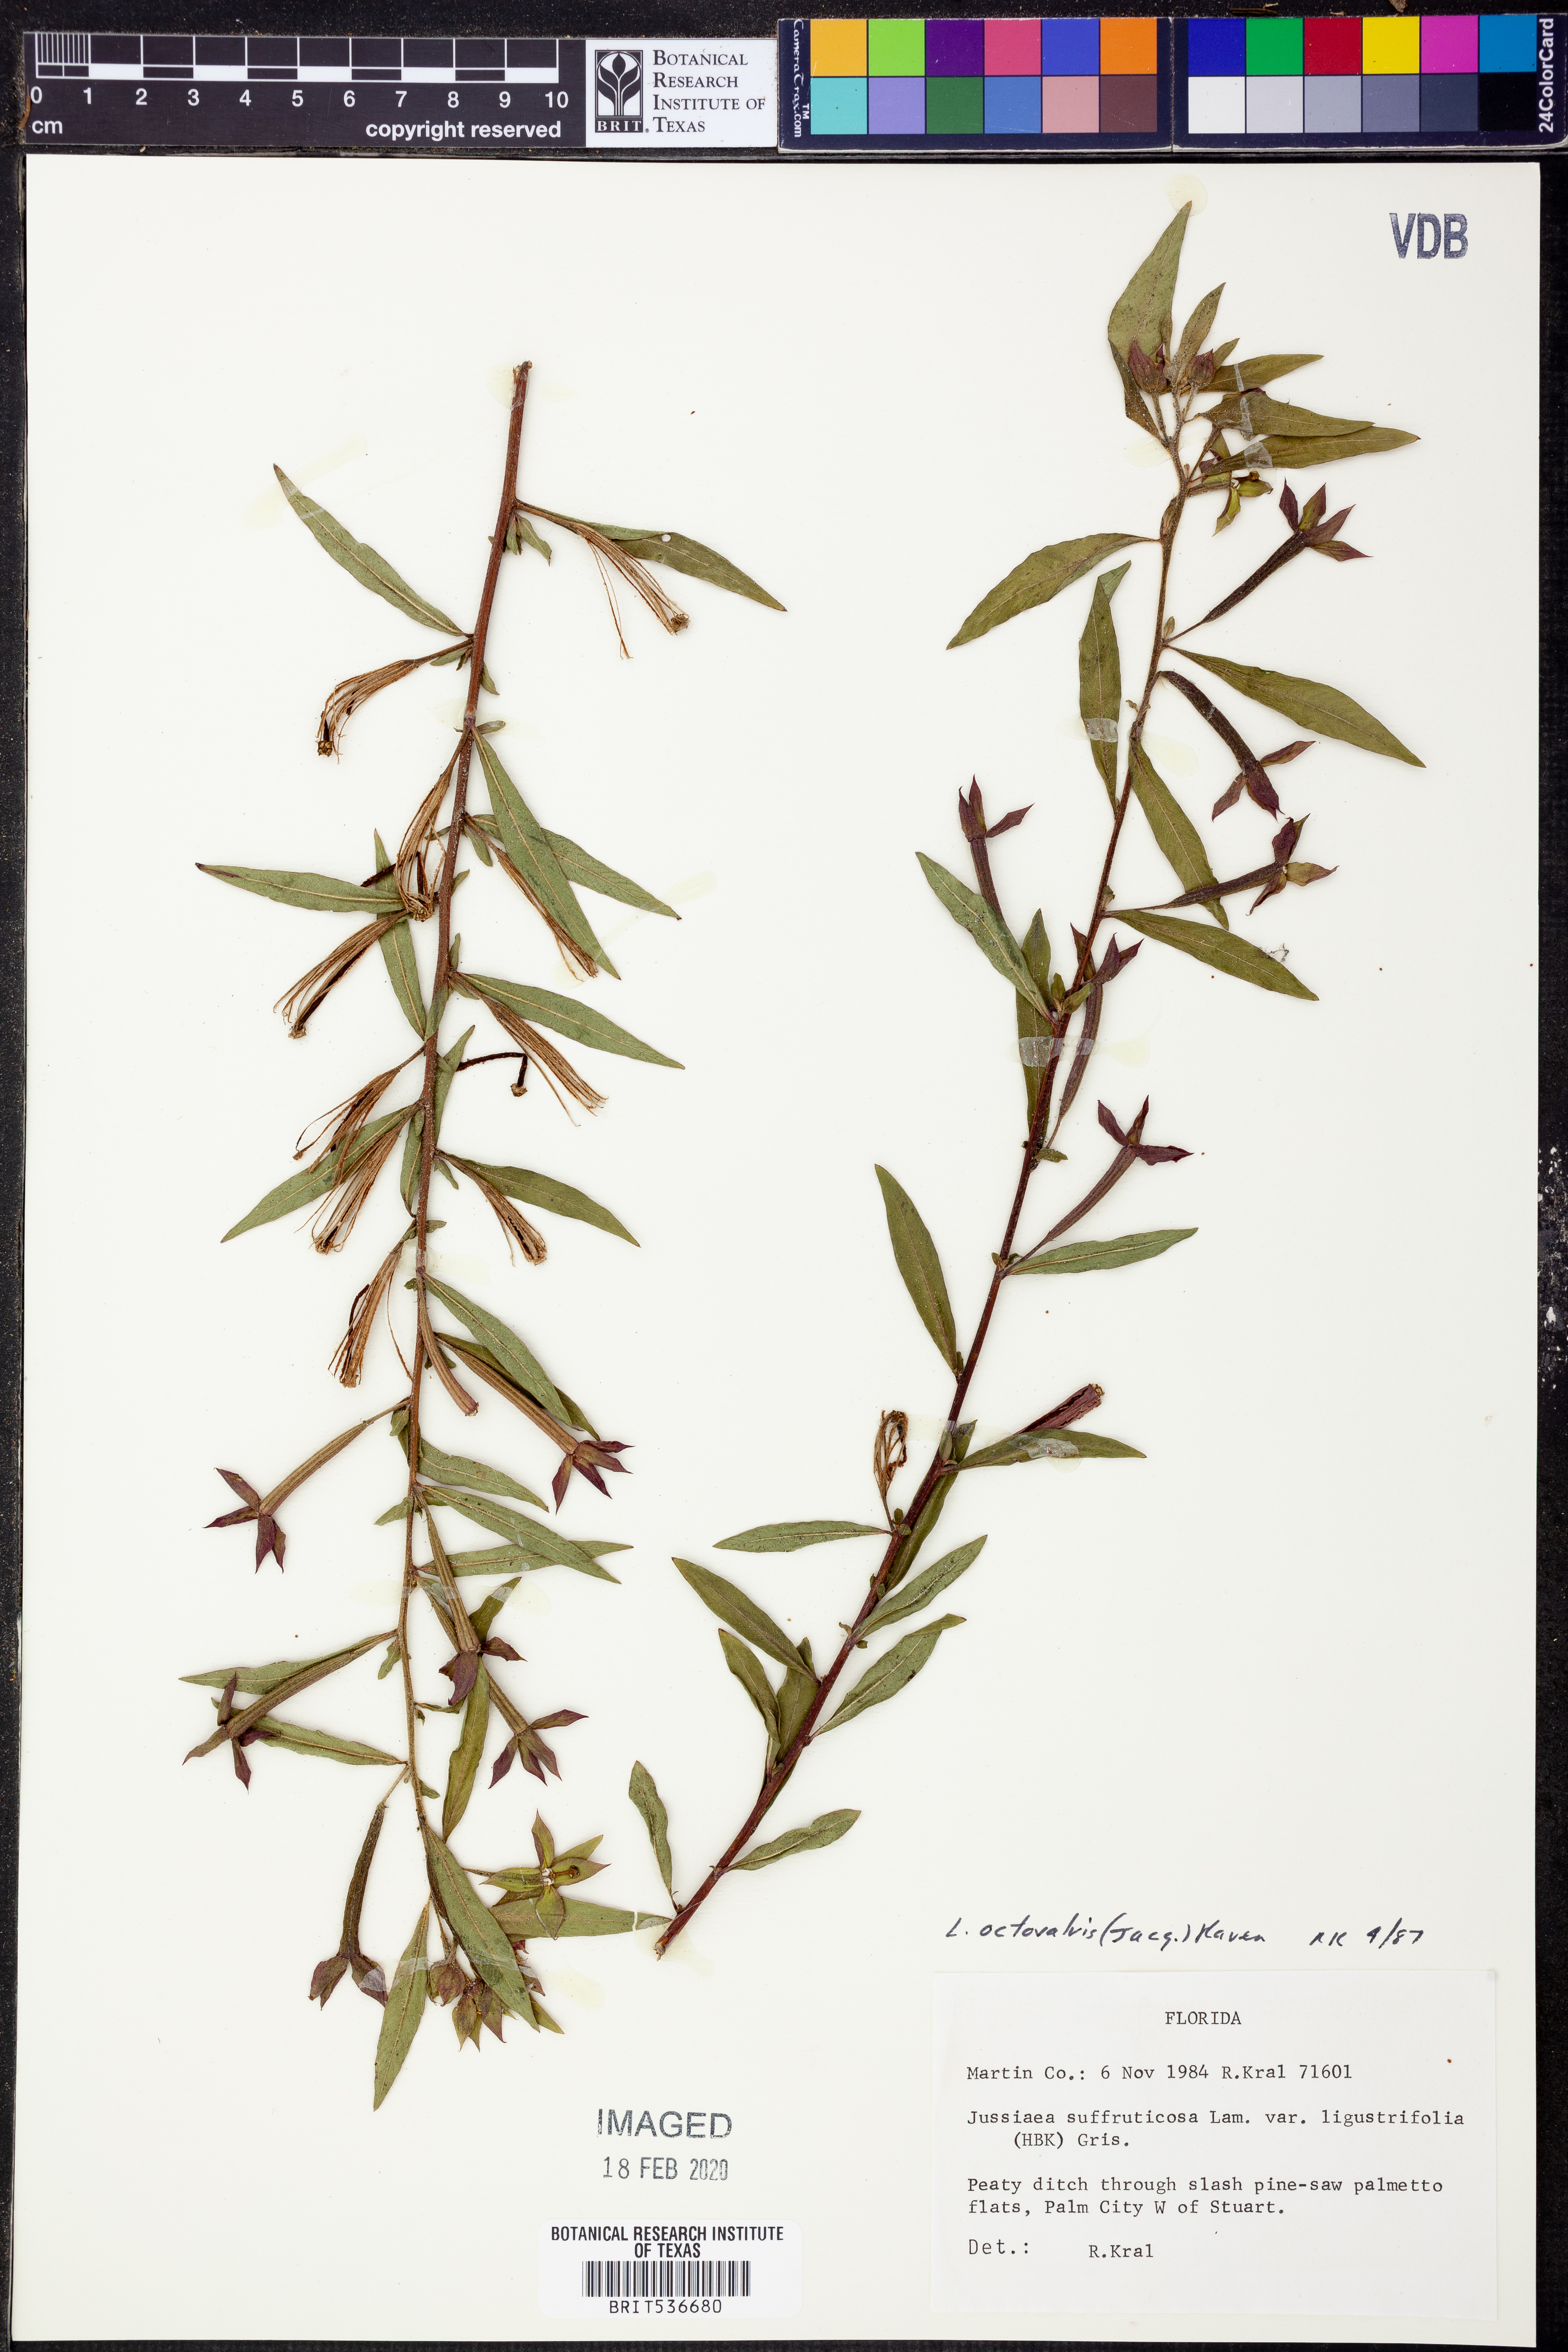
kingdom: Plantae
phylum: Tracheophyta
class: Magnoliopsida
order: Myrtales
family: Onagraceae
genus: Ludwigia
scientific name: Ludwigia octovalvis
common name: Water-primrose
